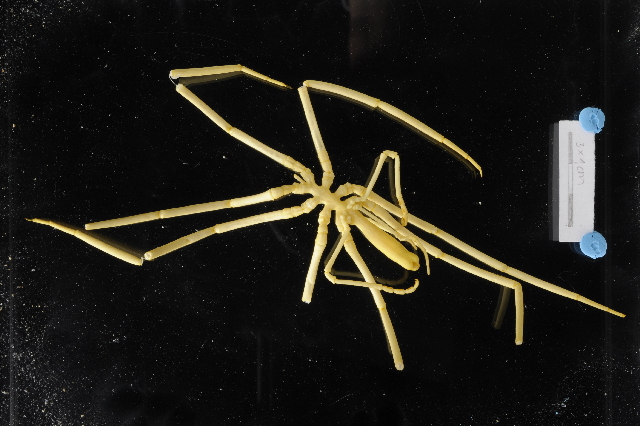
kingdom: Animalia
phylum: Arthropoda
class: Pycnogonida
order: Pantopoda
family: Colossendeidae
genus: Colossendeis
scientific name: Colossendeis robusta
